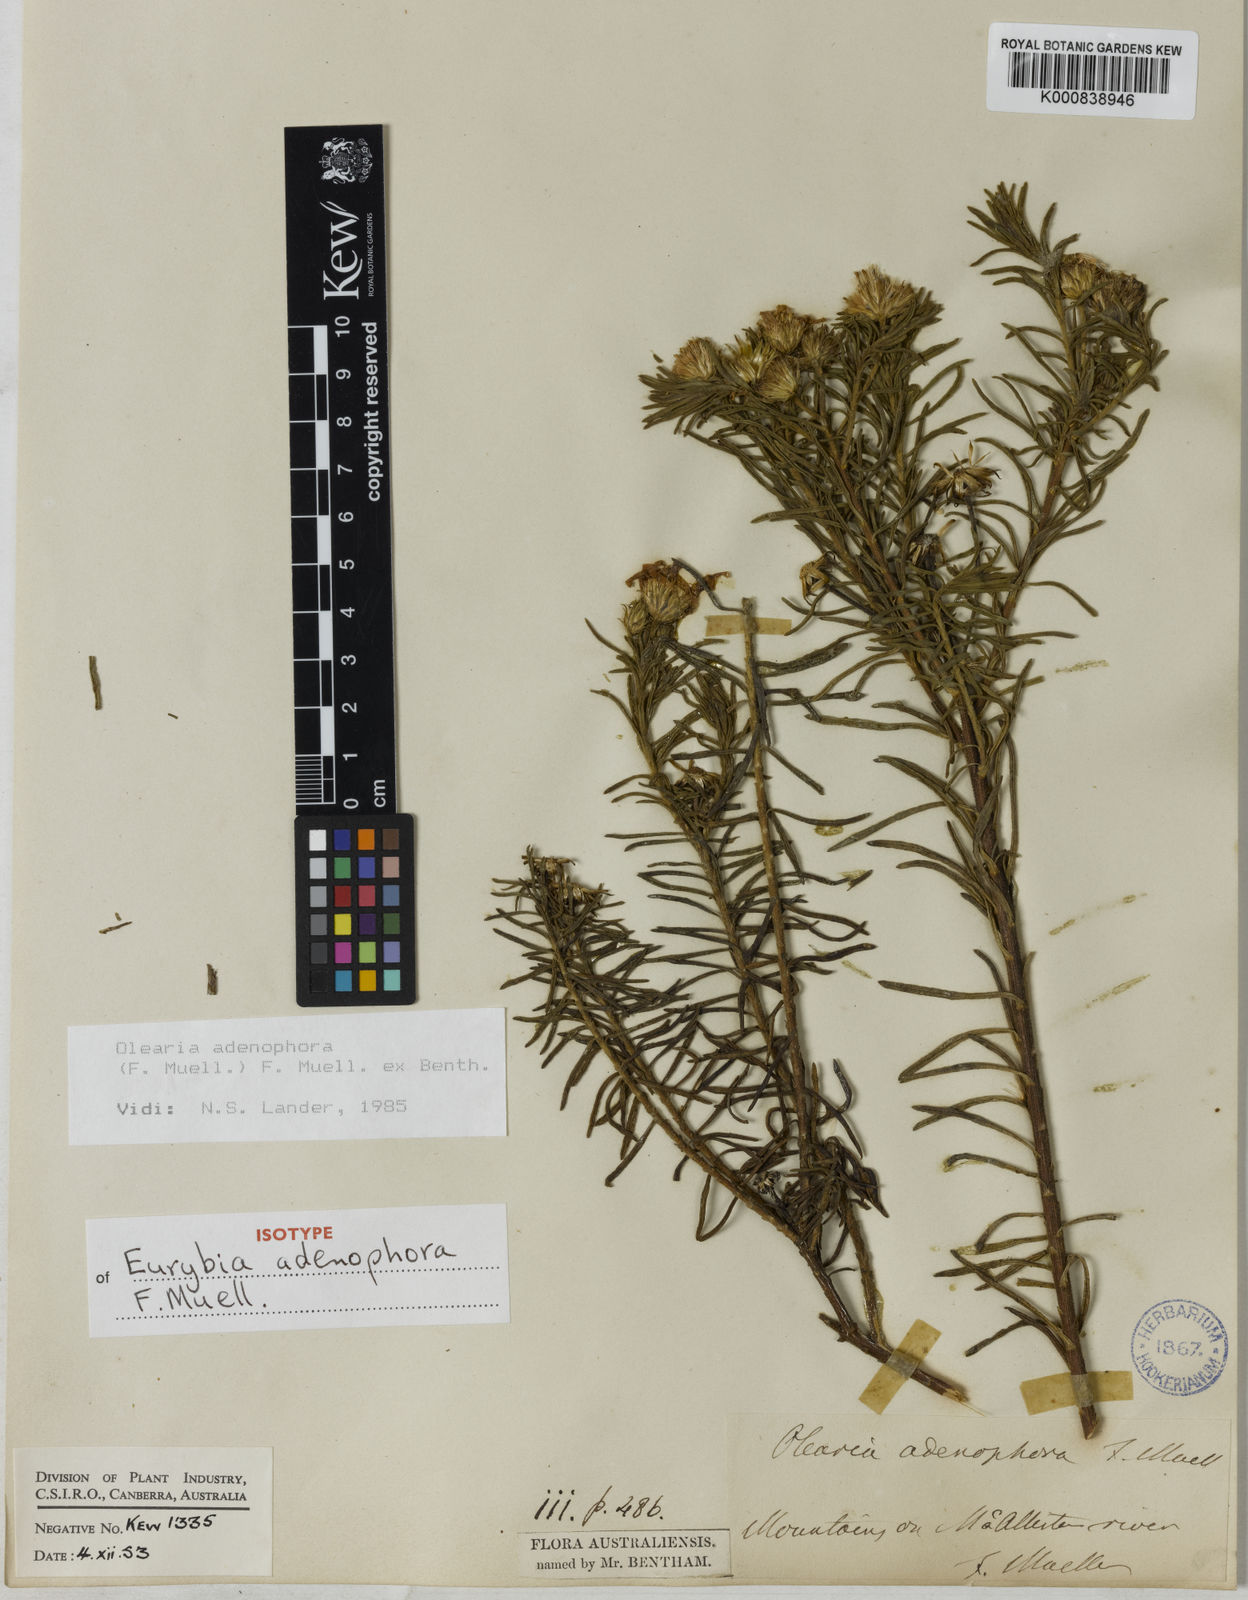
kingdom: Plantae
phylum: Tracheophyta
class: Magnoliopsida
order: Asterales
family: Asteraceae
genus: Olearia
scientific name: Olearia
